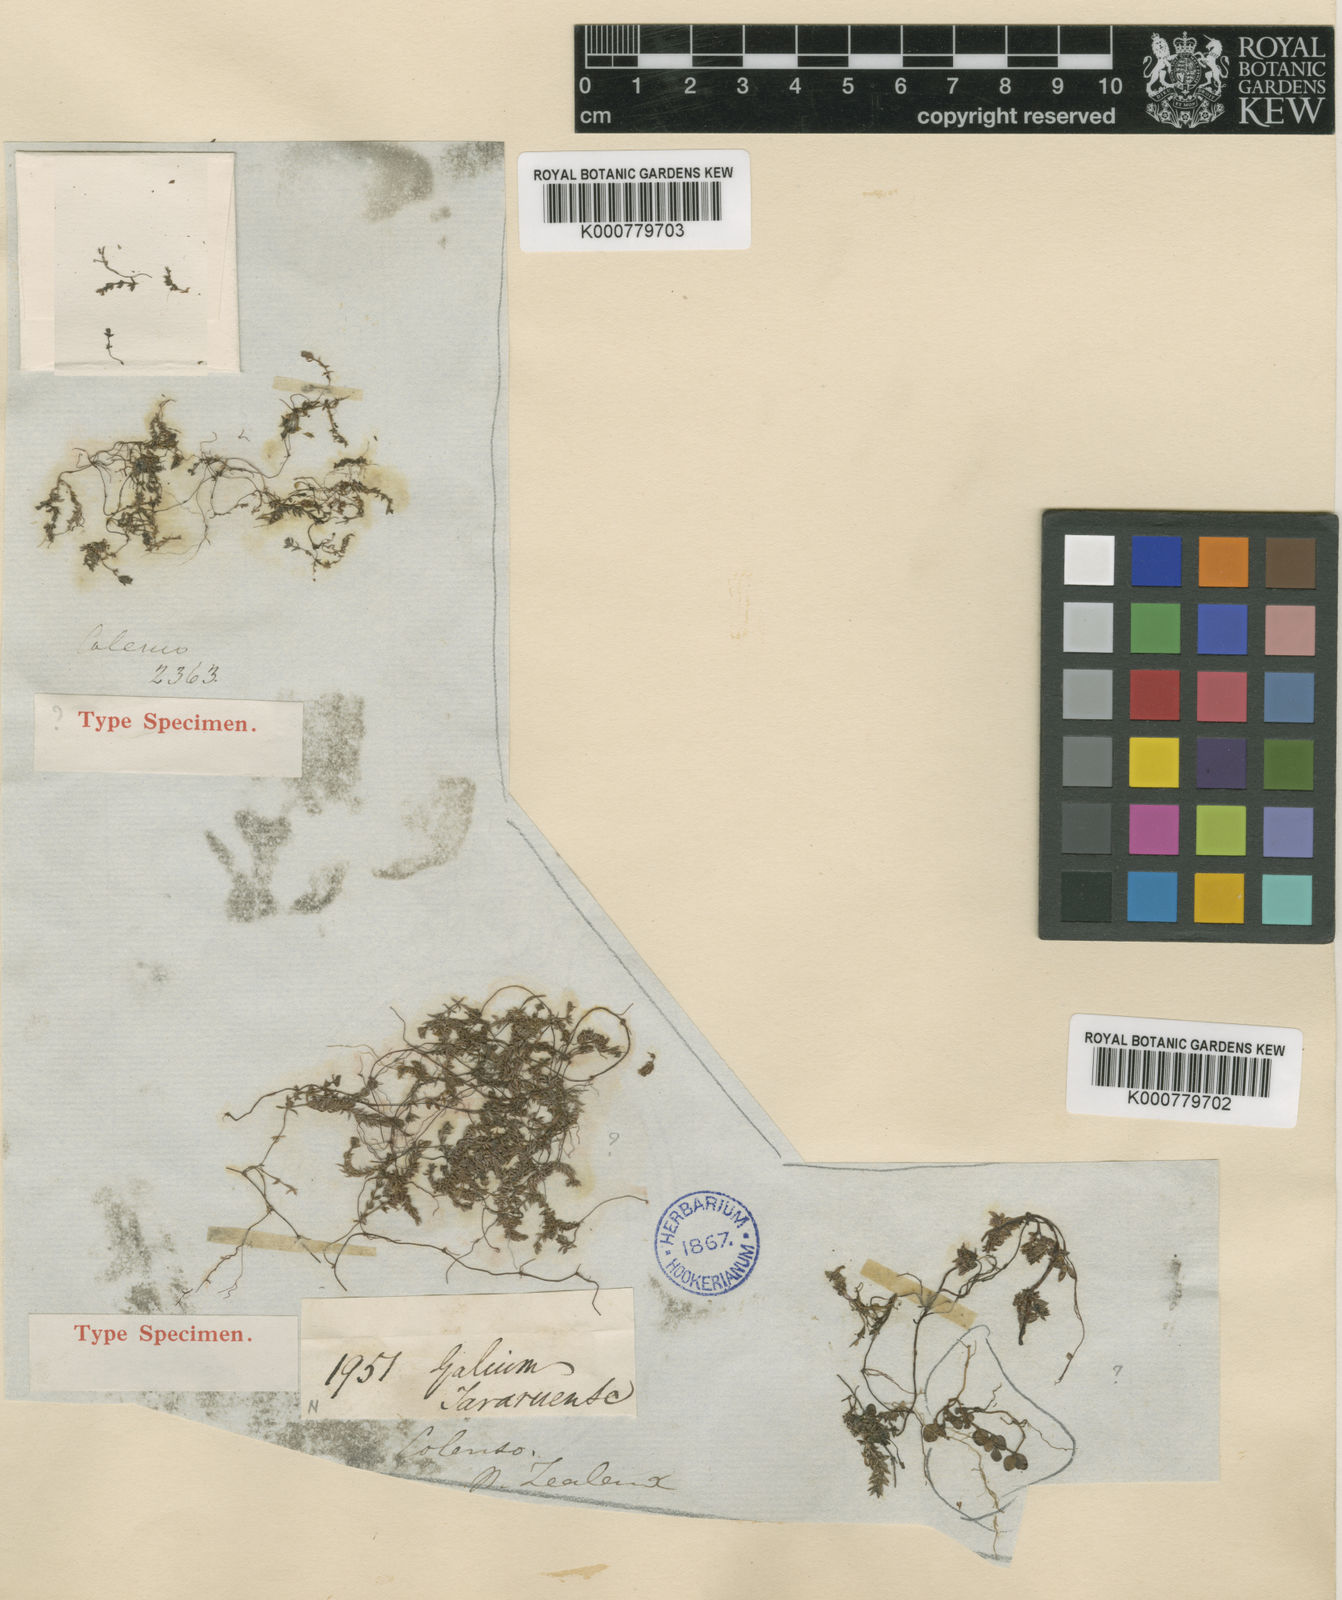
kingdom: Plantae
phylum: Tracheophyta
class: Magnoliopsida
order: Gentianales
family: Rubiaceae
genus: Asperula
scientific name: Asperula perpusilla
